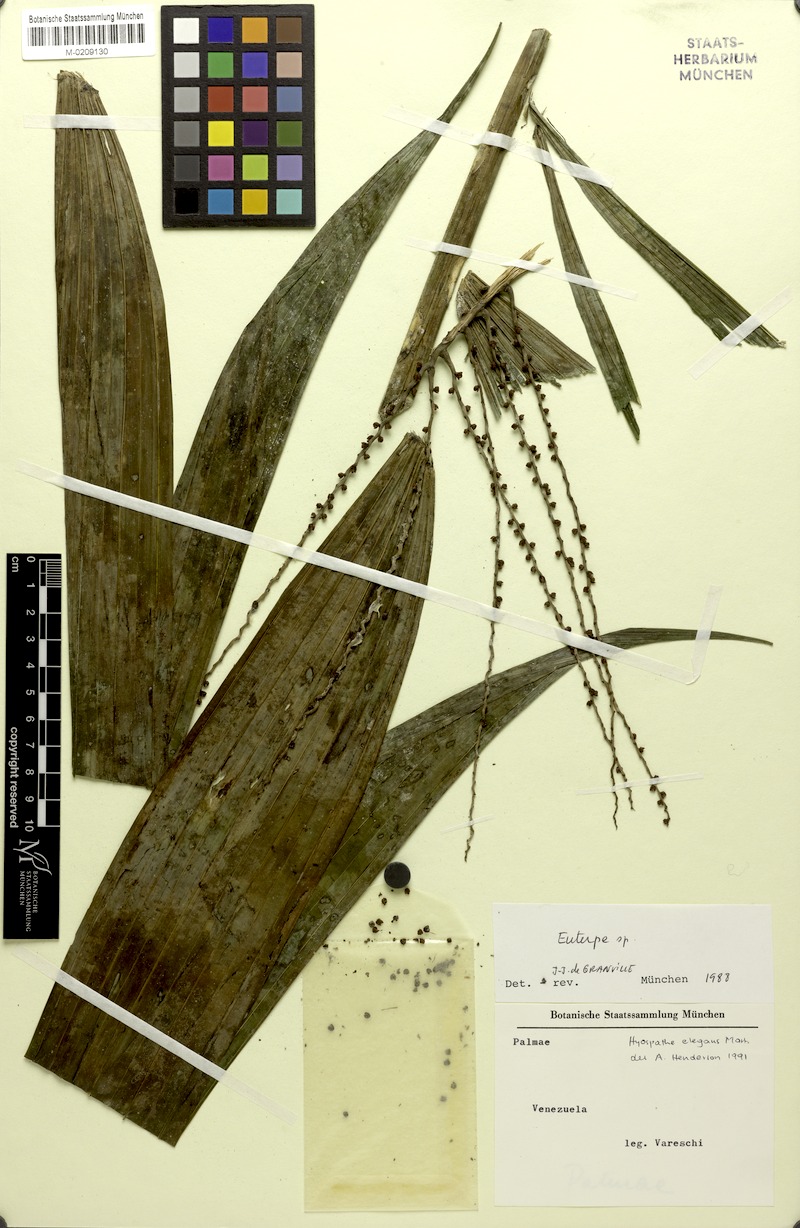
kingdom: Plantae
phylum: Tracheophyta
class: Liliopsida
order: Arecales
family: Arecaceae
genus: Hyospathe
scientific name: Hyospathe elegans
